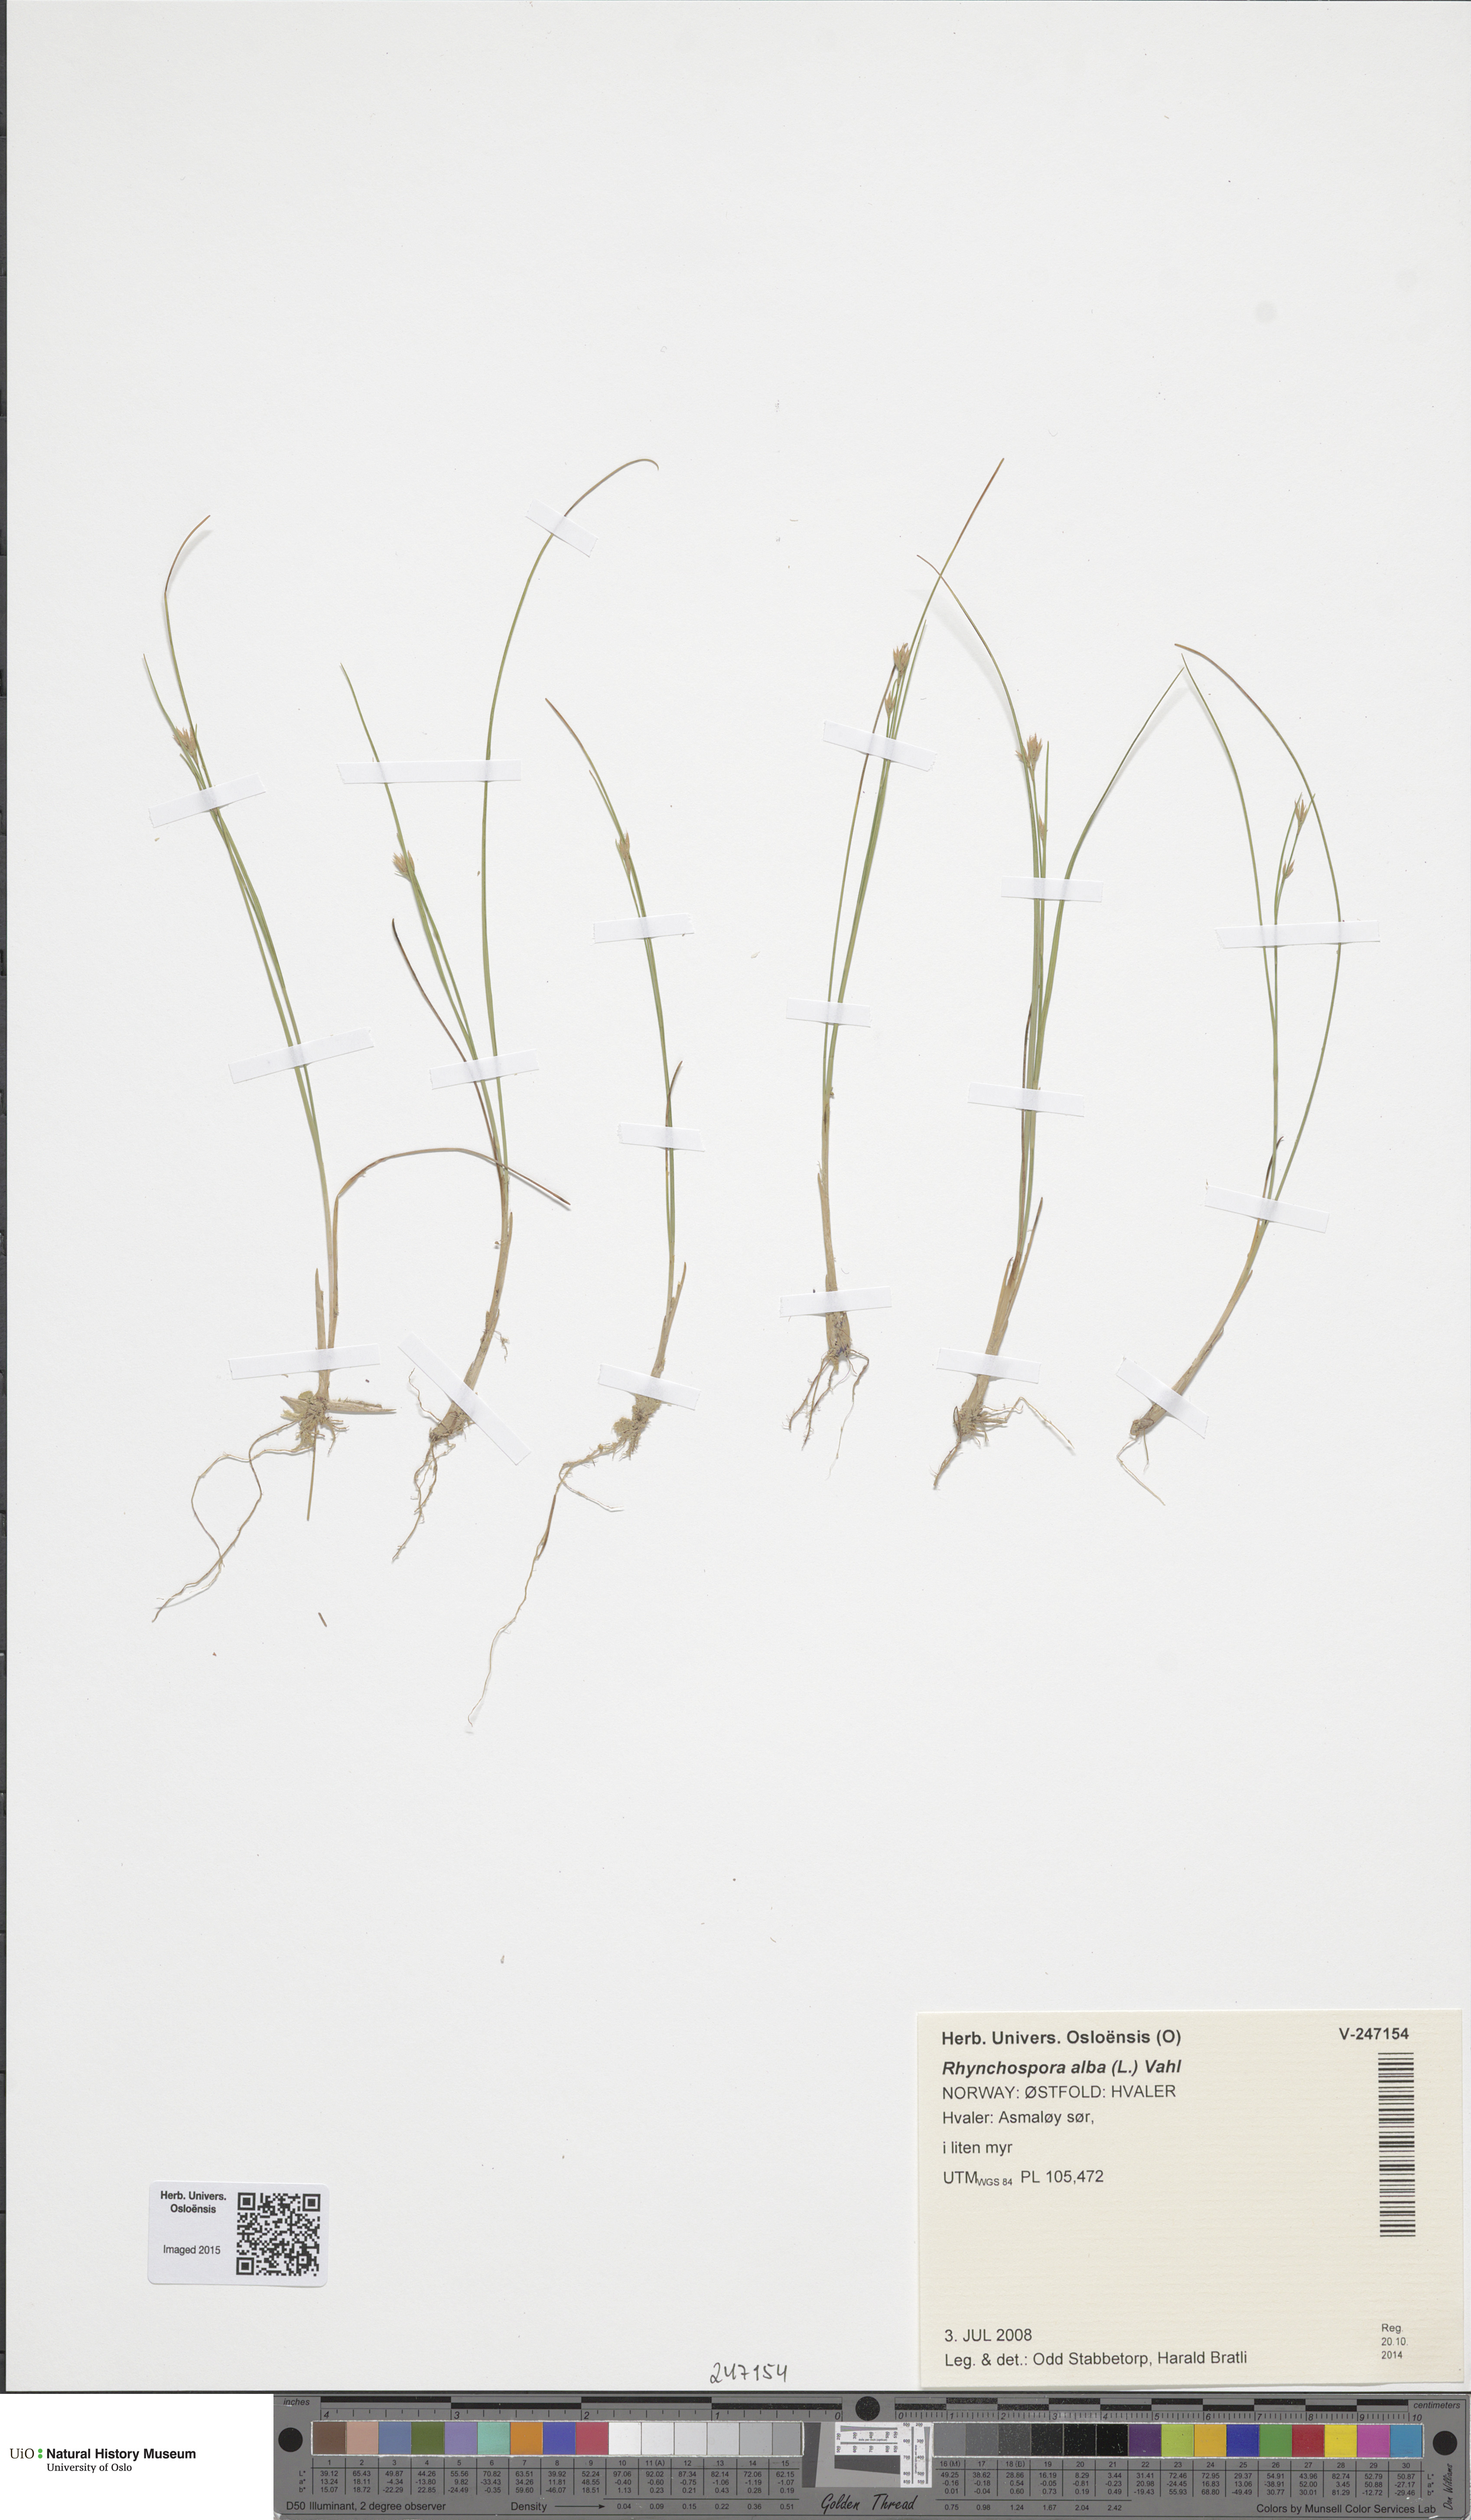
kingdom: Plantae
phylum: Tracheophyta
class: Liliopsida
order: Poales
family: Cyperaceae
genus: Rhynchospora
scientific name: Rhynchospora alba
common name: White beak-sedge
